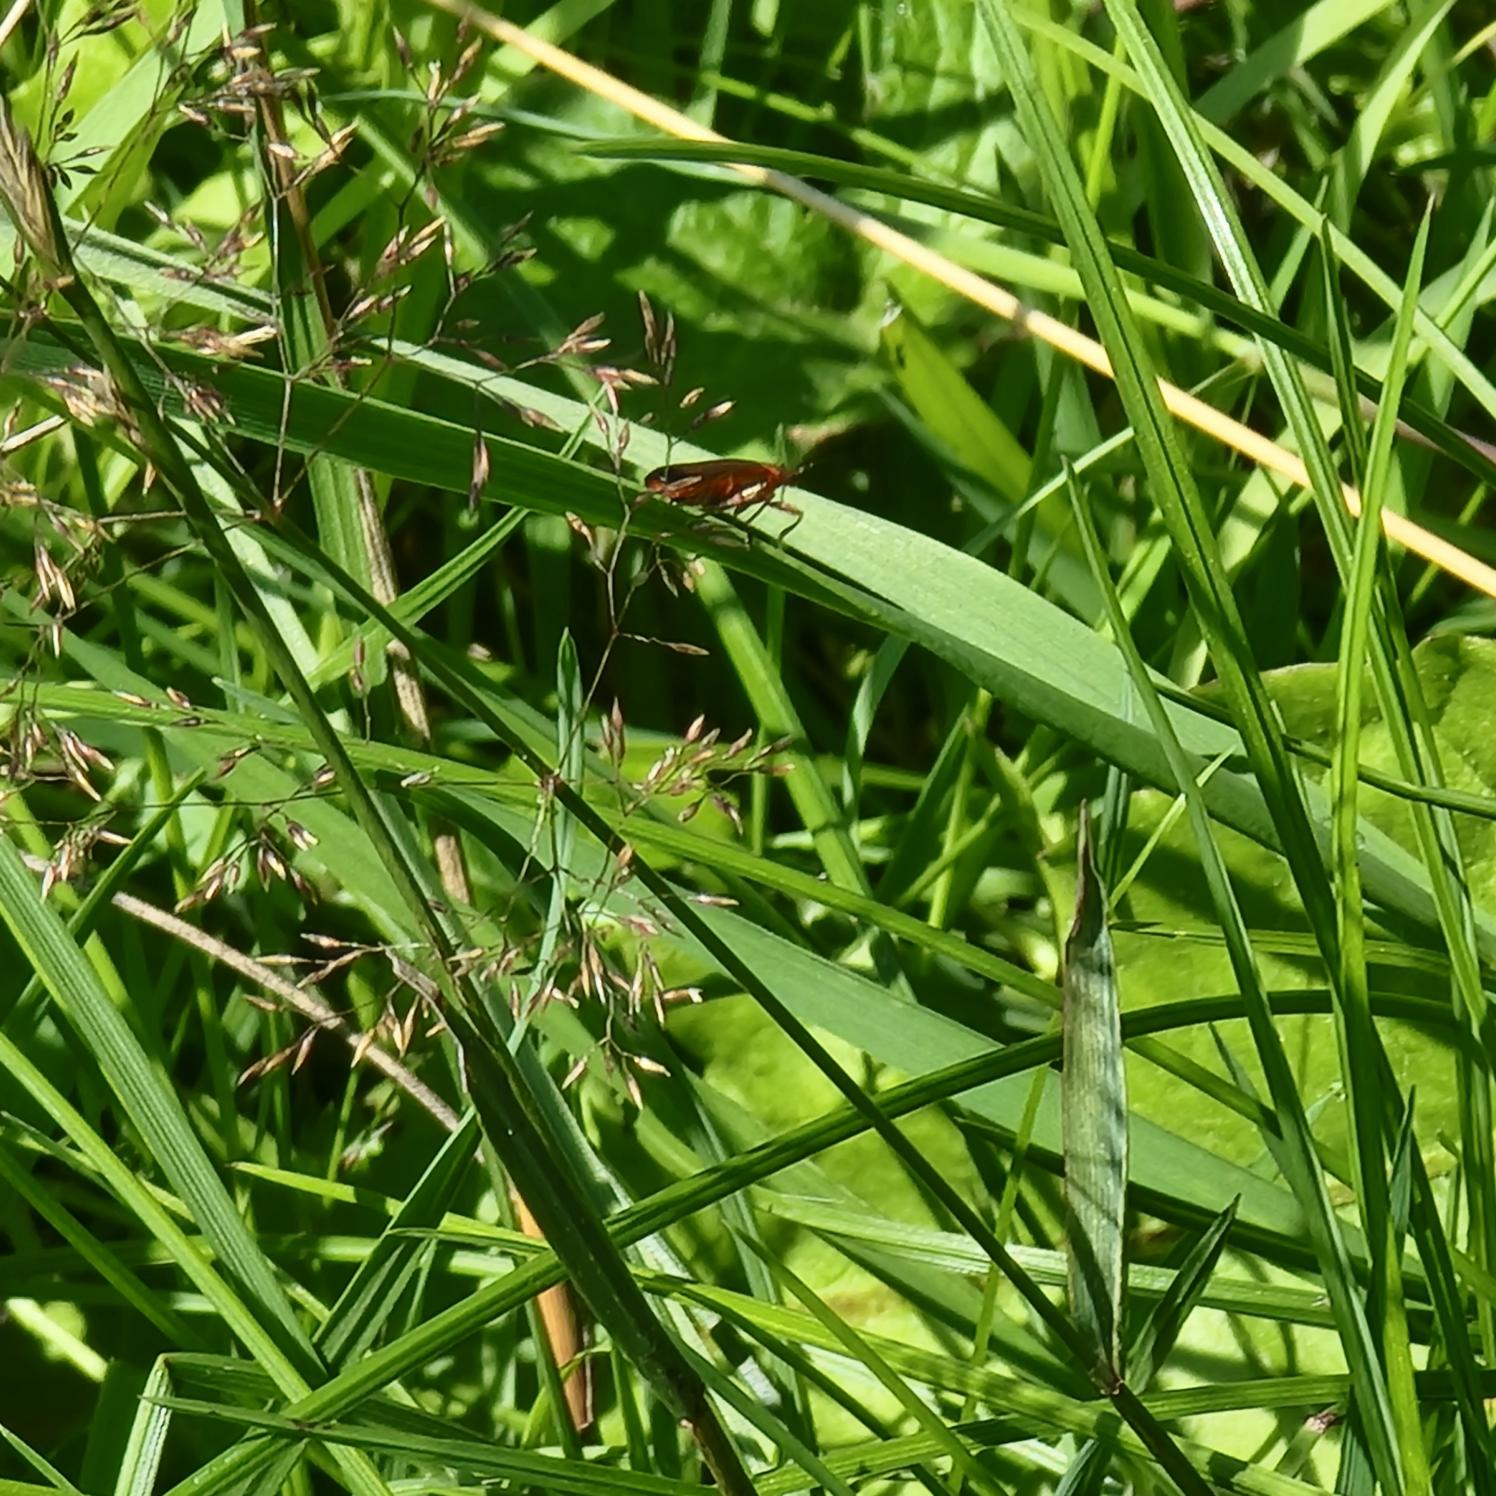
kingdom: Animalia
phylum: Arthropoda
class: Insecta
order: Coleoptera
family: Cantharidae
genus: Rhagonycha
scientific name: Rhagonycha fulva
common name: Præstebille
